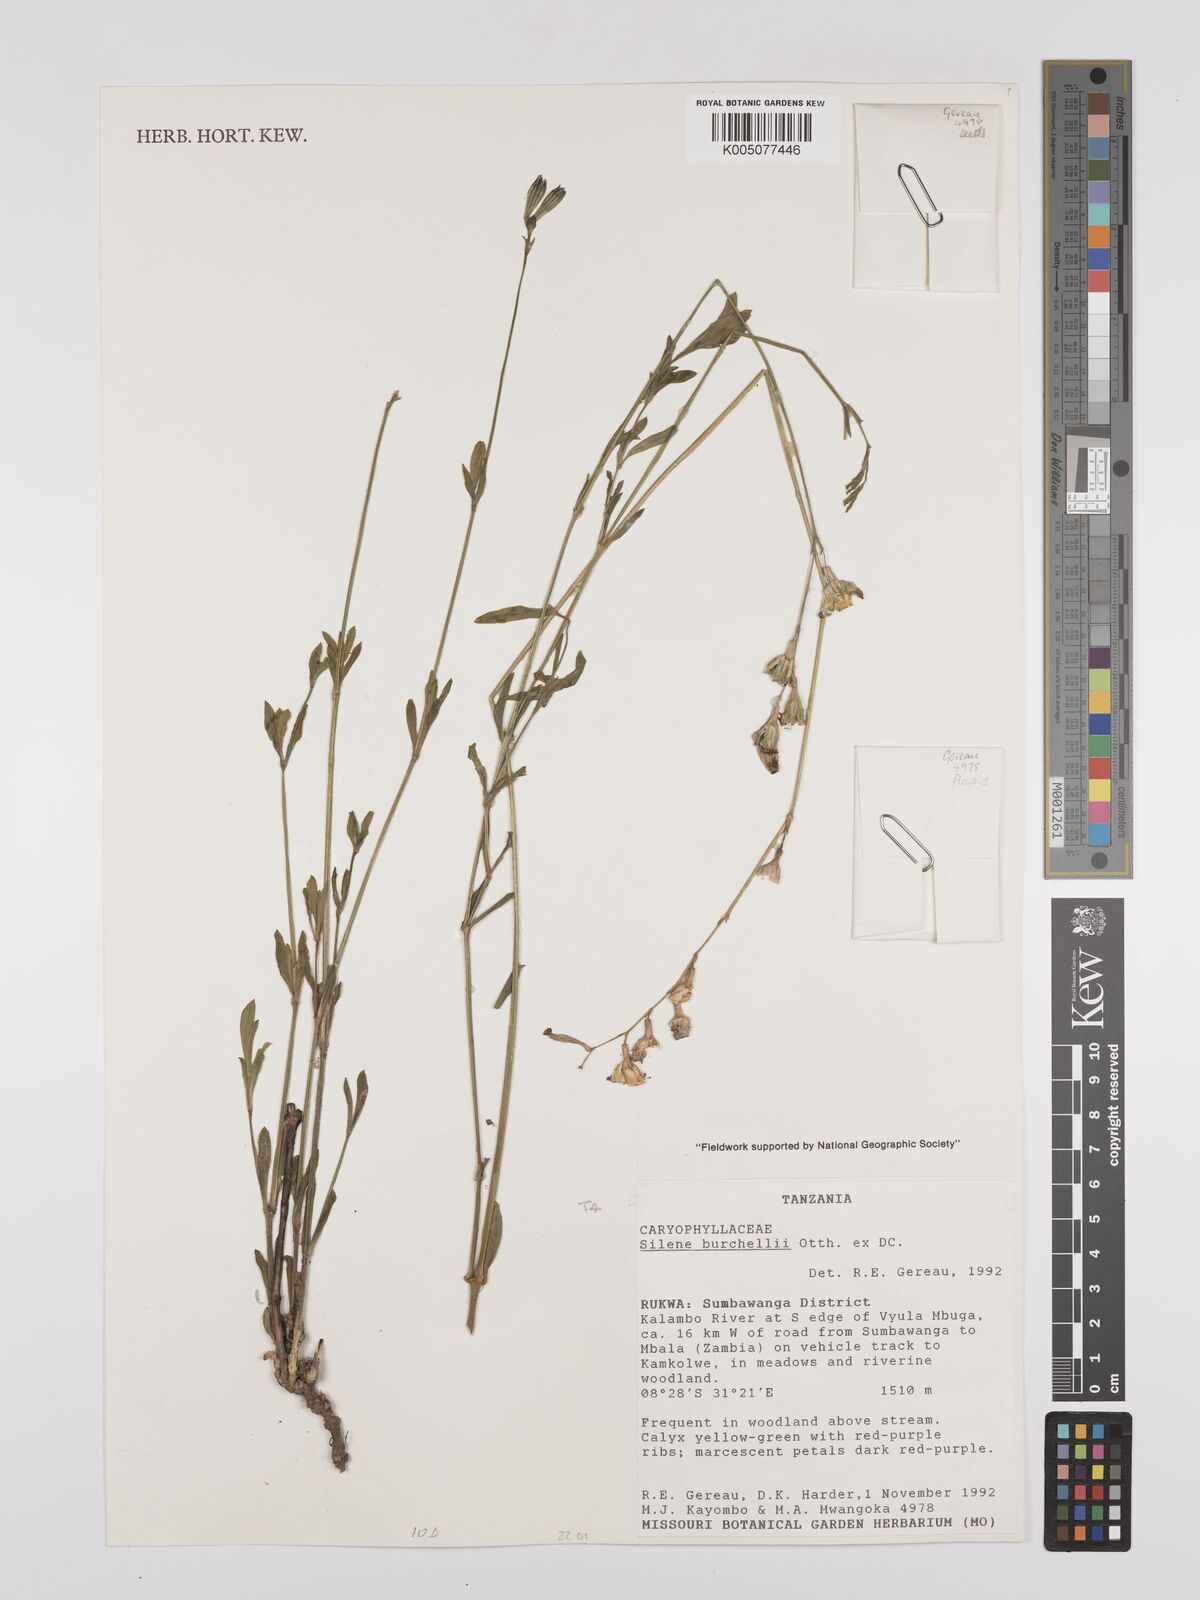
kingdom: Plantae
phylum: Tracheophyta
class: Magnoliopsida
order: Caryophyllales
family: Caryophyllaceae
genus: Silene
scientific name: Silene burchellii
